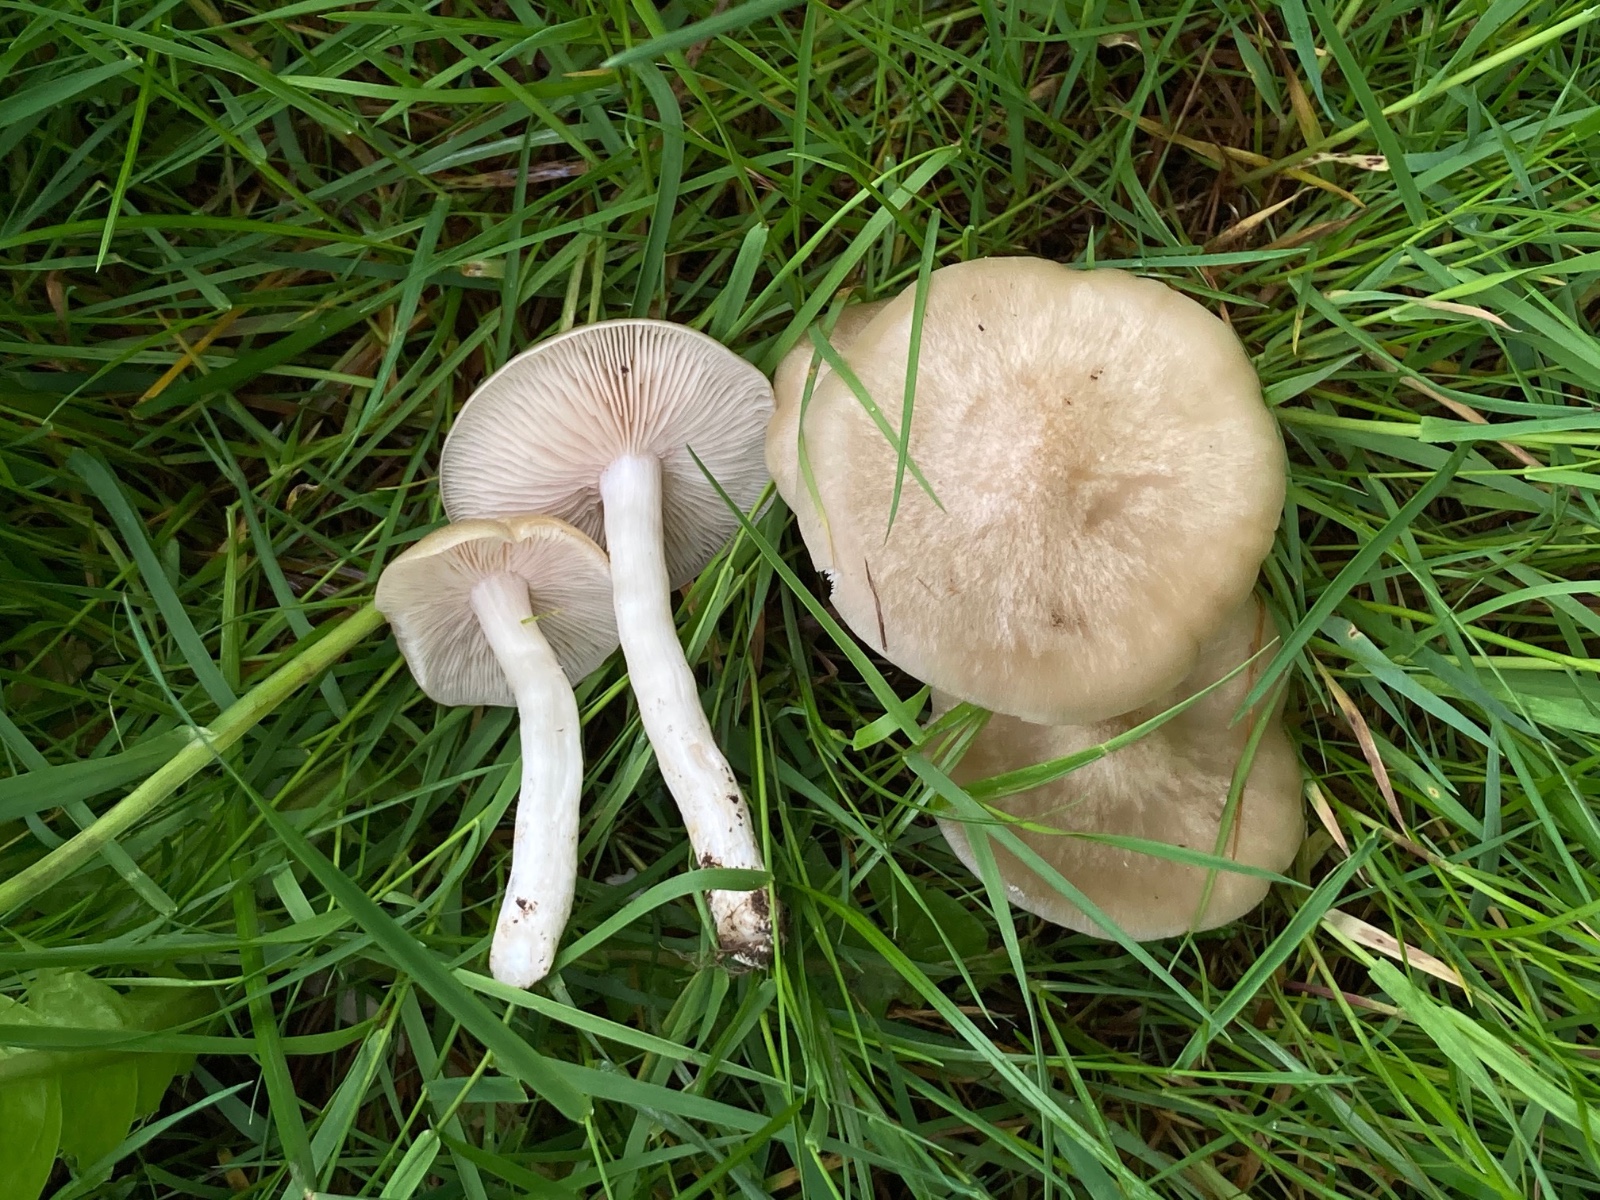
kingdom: Fungi
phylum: Basidiomycota
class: Agaricomycetes
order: Agaricales
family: Entolomataceae
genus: Entoloma
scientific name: Entoloma clypeatum
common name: flammet rødblad
